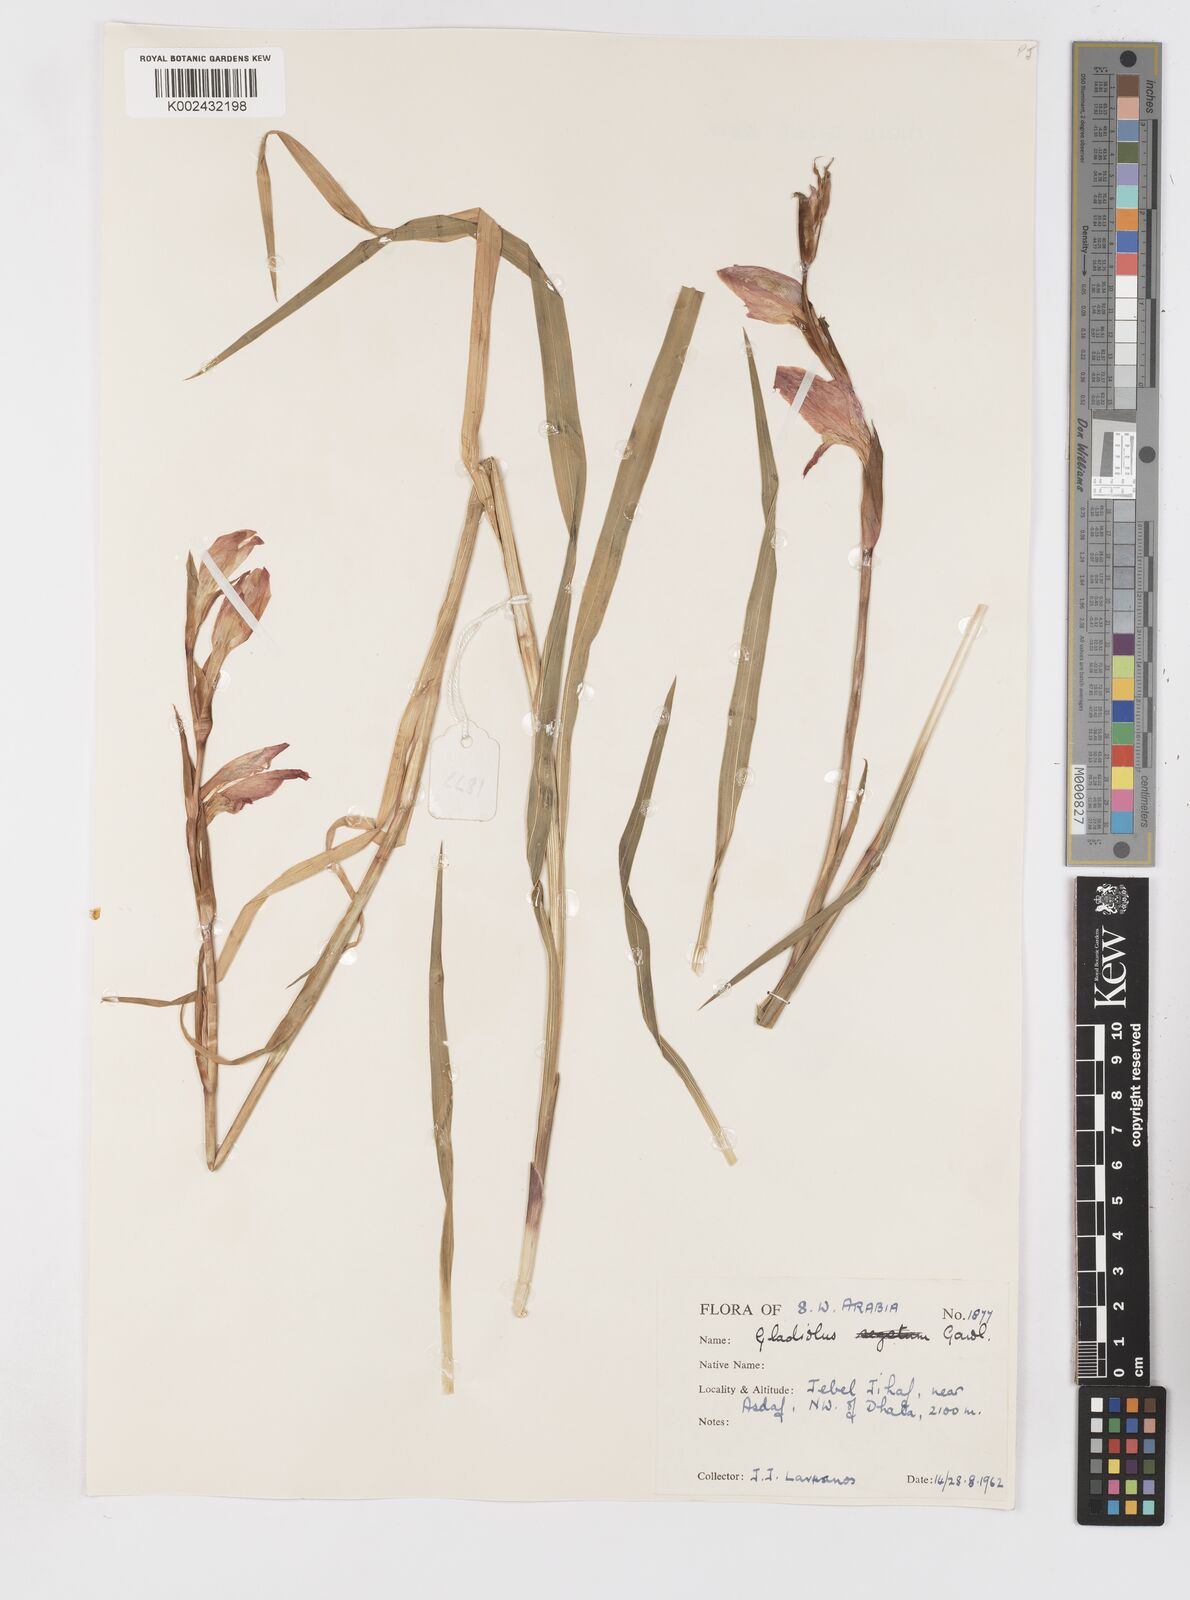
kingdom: Plantae
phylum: Tracheophyta
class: Liliopsida
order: Asparagales
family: Iridaceae
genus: Gladiolus
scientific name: Gladiolus dalenii
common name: Cornflag
